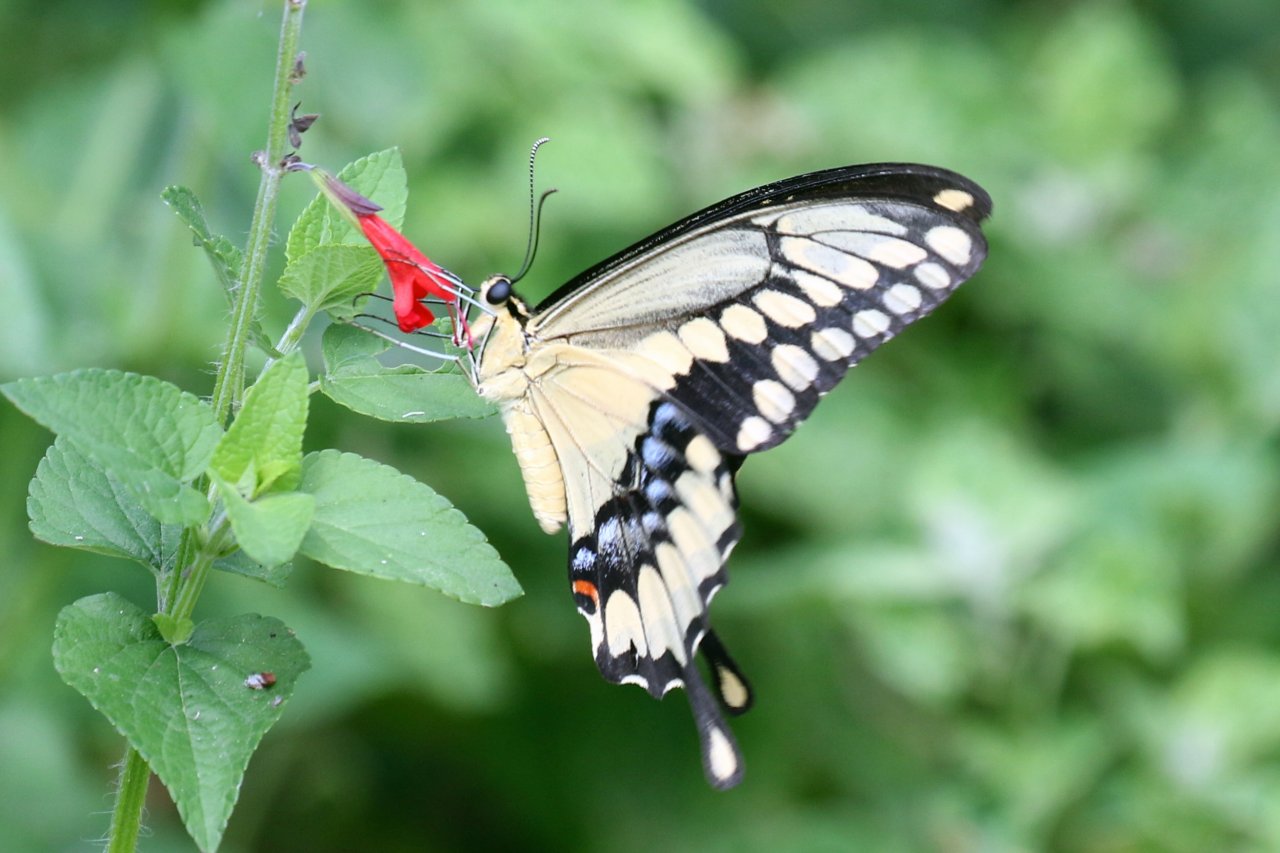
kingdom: Animalia
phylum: Arthropoda
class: Insecta
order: Lepidoptera
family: Papilionidae
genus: Papilio
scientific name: Papilio rumiko
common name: Western Giant Swallowtail
